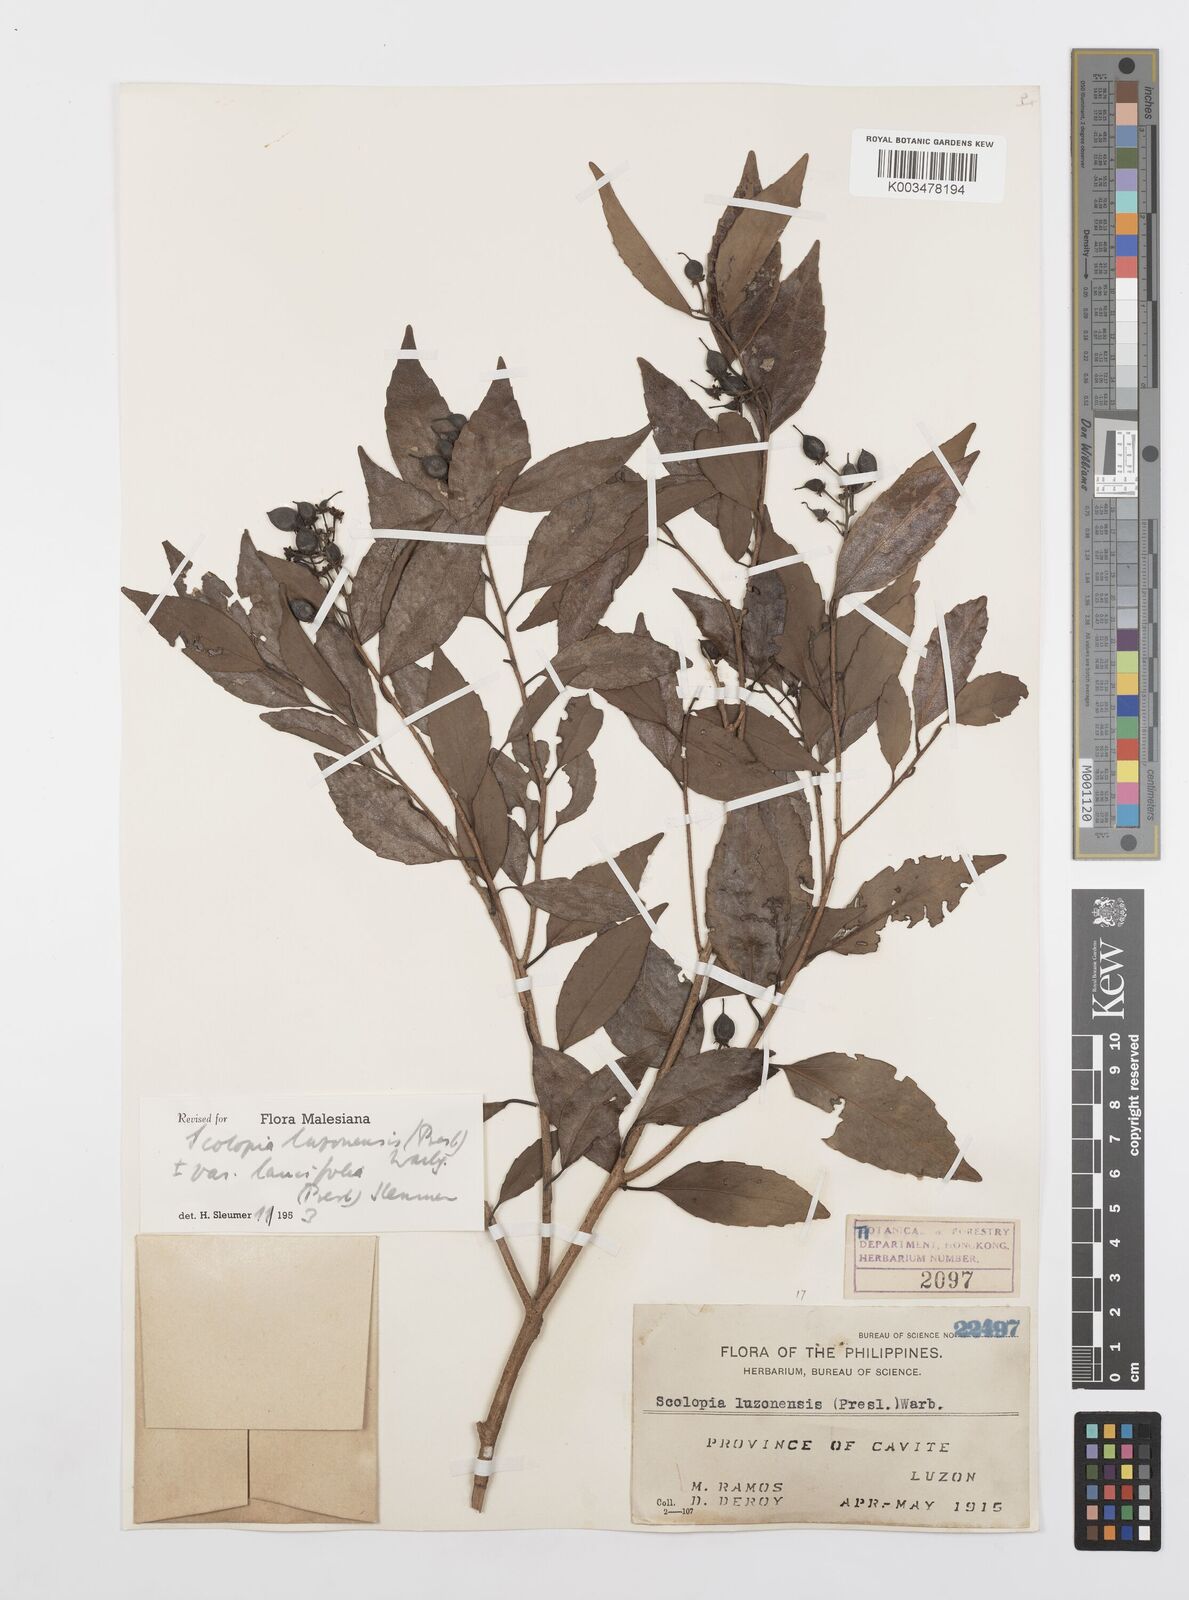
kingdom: Plantae
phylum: Tracheophyta
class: Magnoliopsida
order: Malpighiales
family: Salicaceae
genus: Scolopia
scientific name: Scolopia luzonensis
